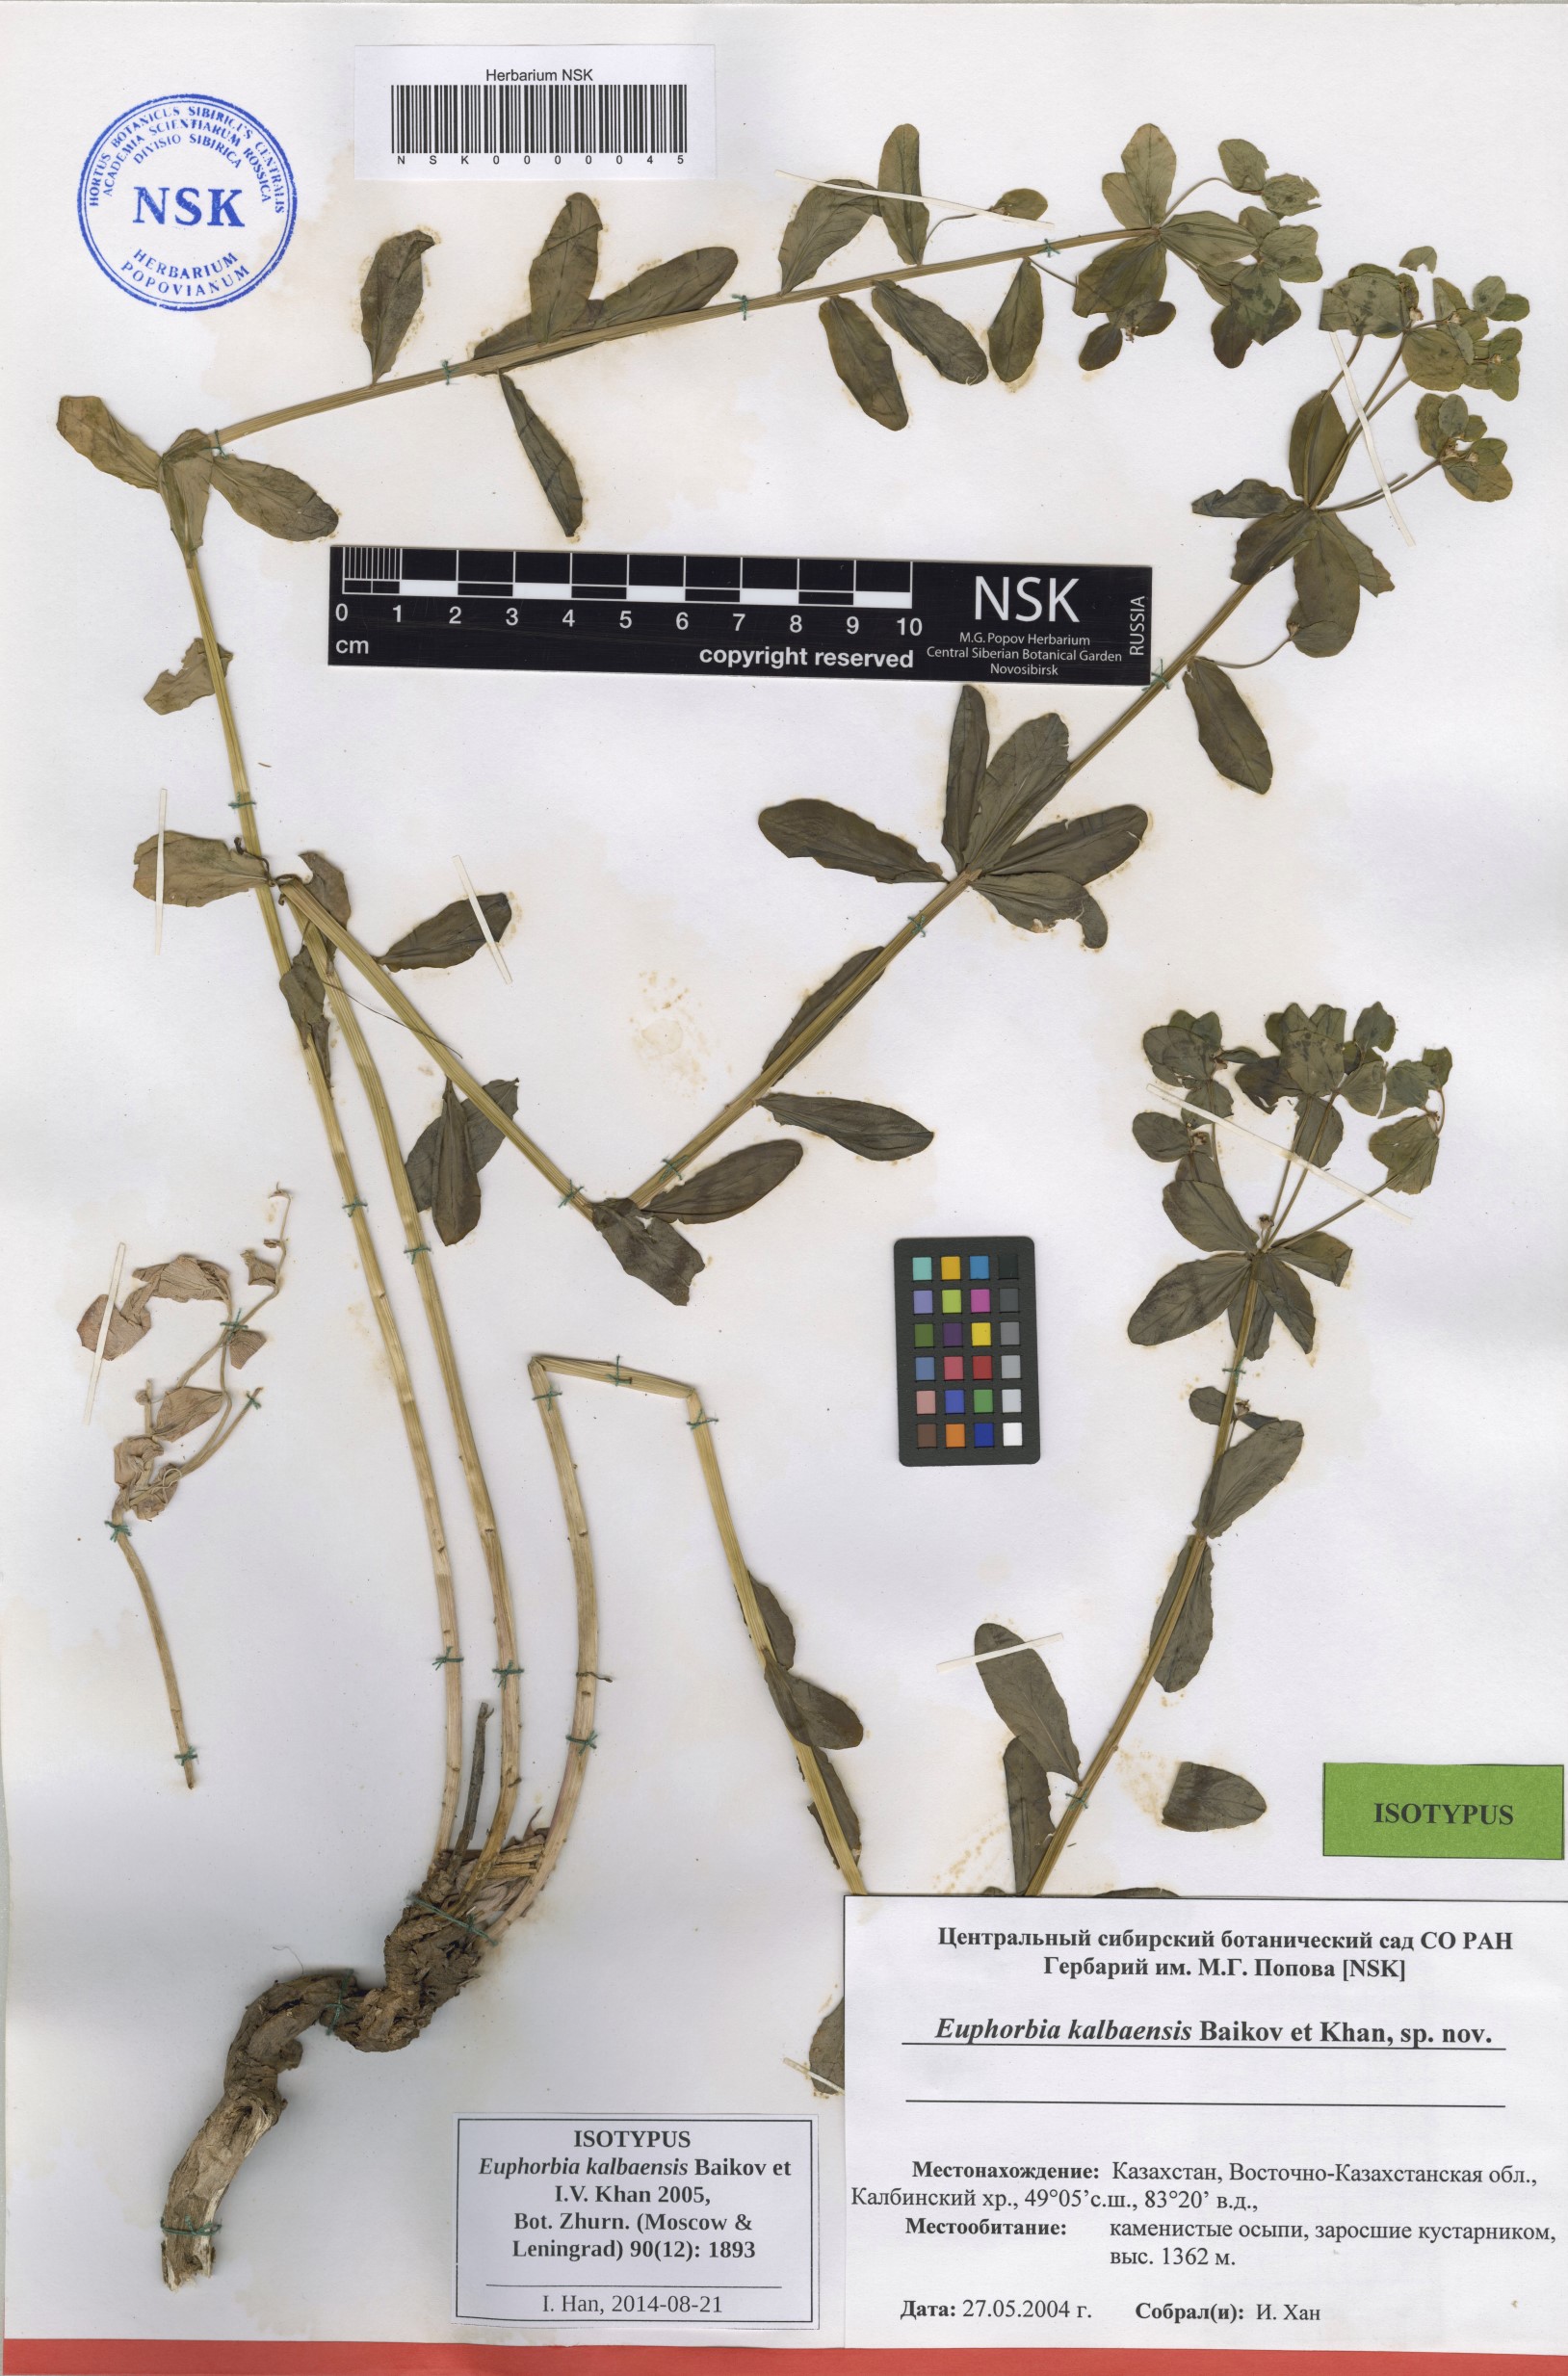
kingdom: Plantae
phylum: Tracheophyta
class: Magnoliopsida
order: Malpighiales
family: Euphorbiaceae
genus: Euphorbia
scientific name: Euphorbia kalbaensis
